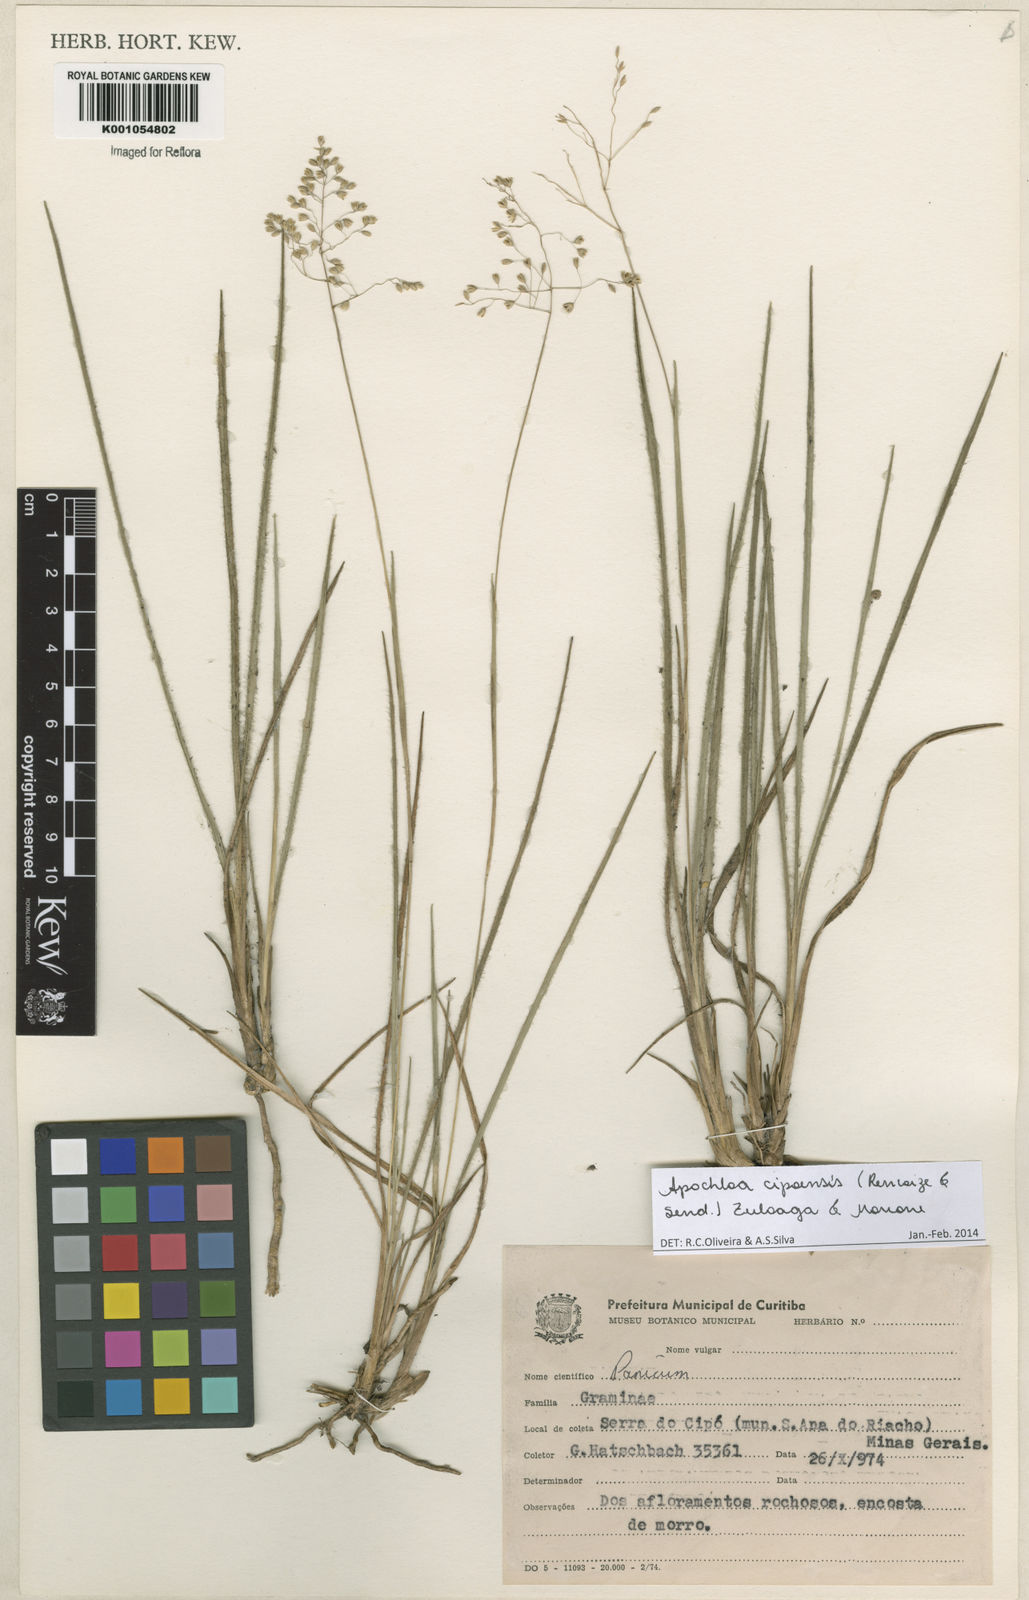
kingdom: Plantae
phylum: Tracheophyta
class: Liliopsida
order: Poales
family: Poaceae
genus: Apochloa
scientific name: Apochloa cipoensis
